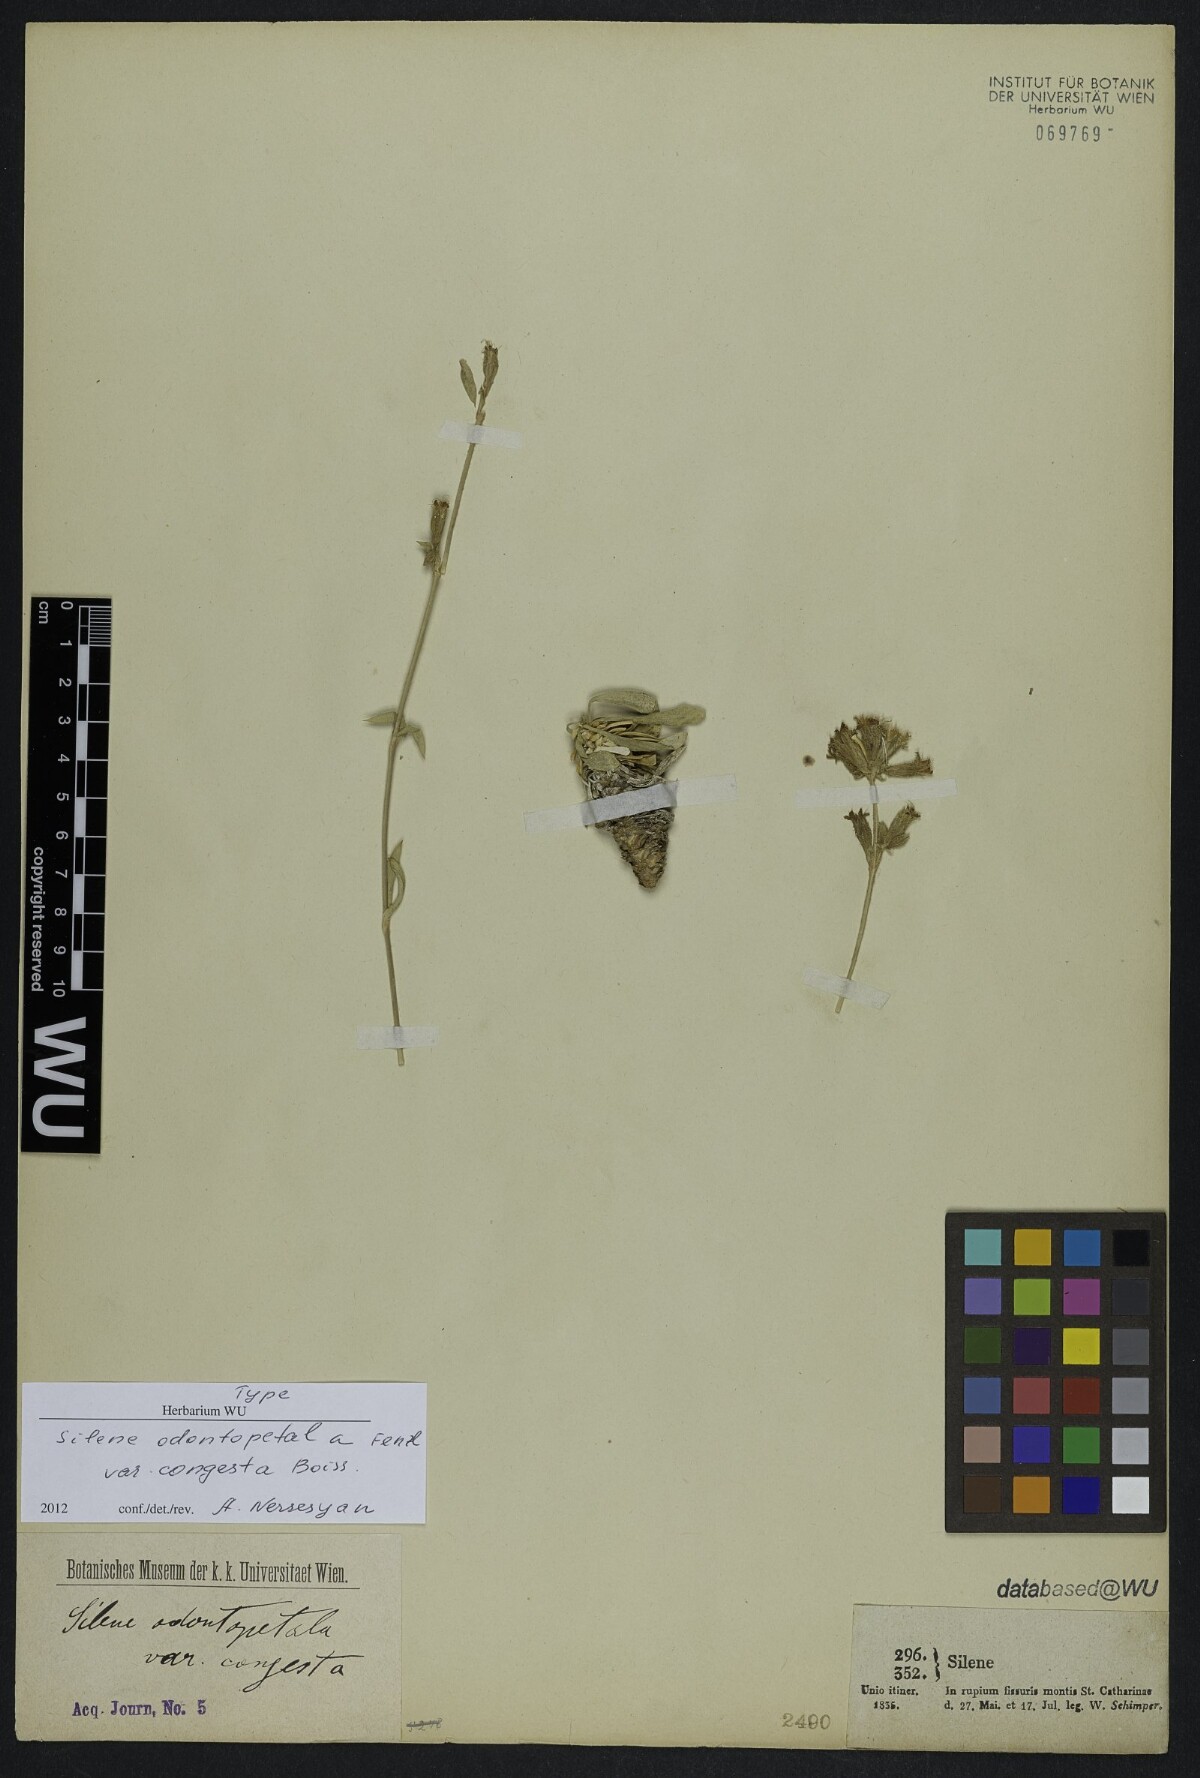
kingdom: Plantae
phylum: Tracheophyta
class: Magnoliopsida
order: Caryophyllales
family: Caryophyllaceae
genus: Silene
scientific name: Silene odontopetala
